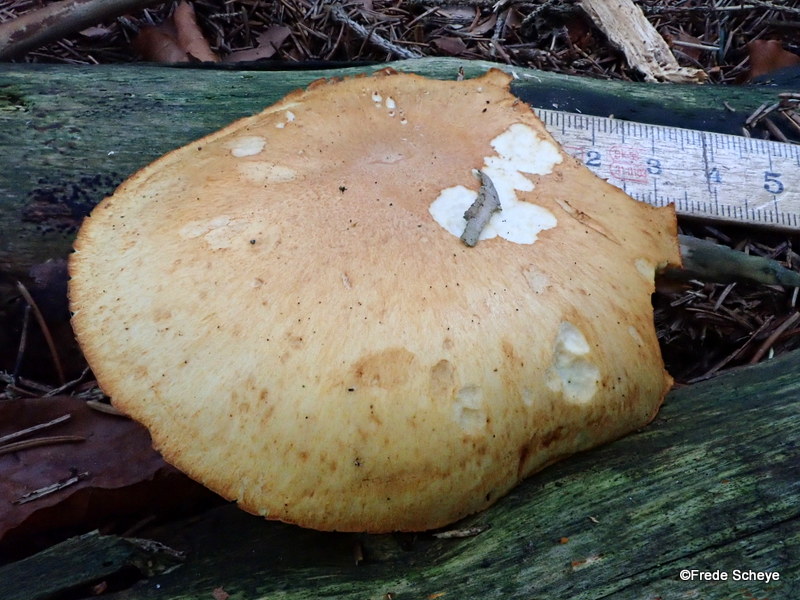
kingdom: Fungi
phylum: Basidiomycota
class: Agaricomycetes
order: Agaricales
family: Hymenogastraceae
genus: Gymnopilus
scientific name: Gymnopilus penetrans
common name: plettet flammehat
